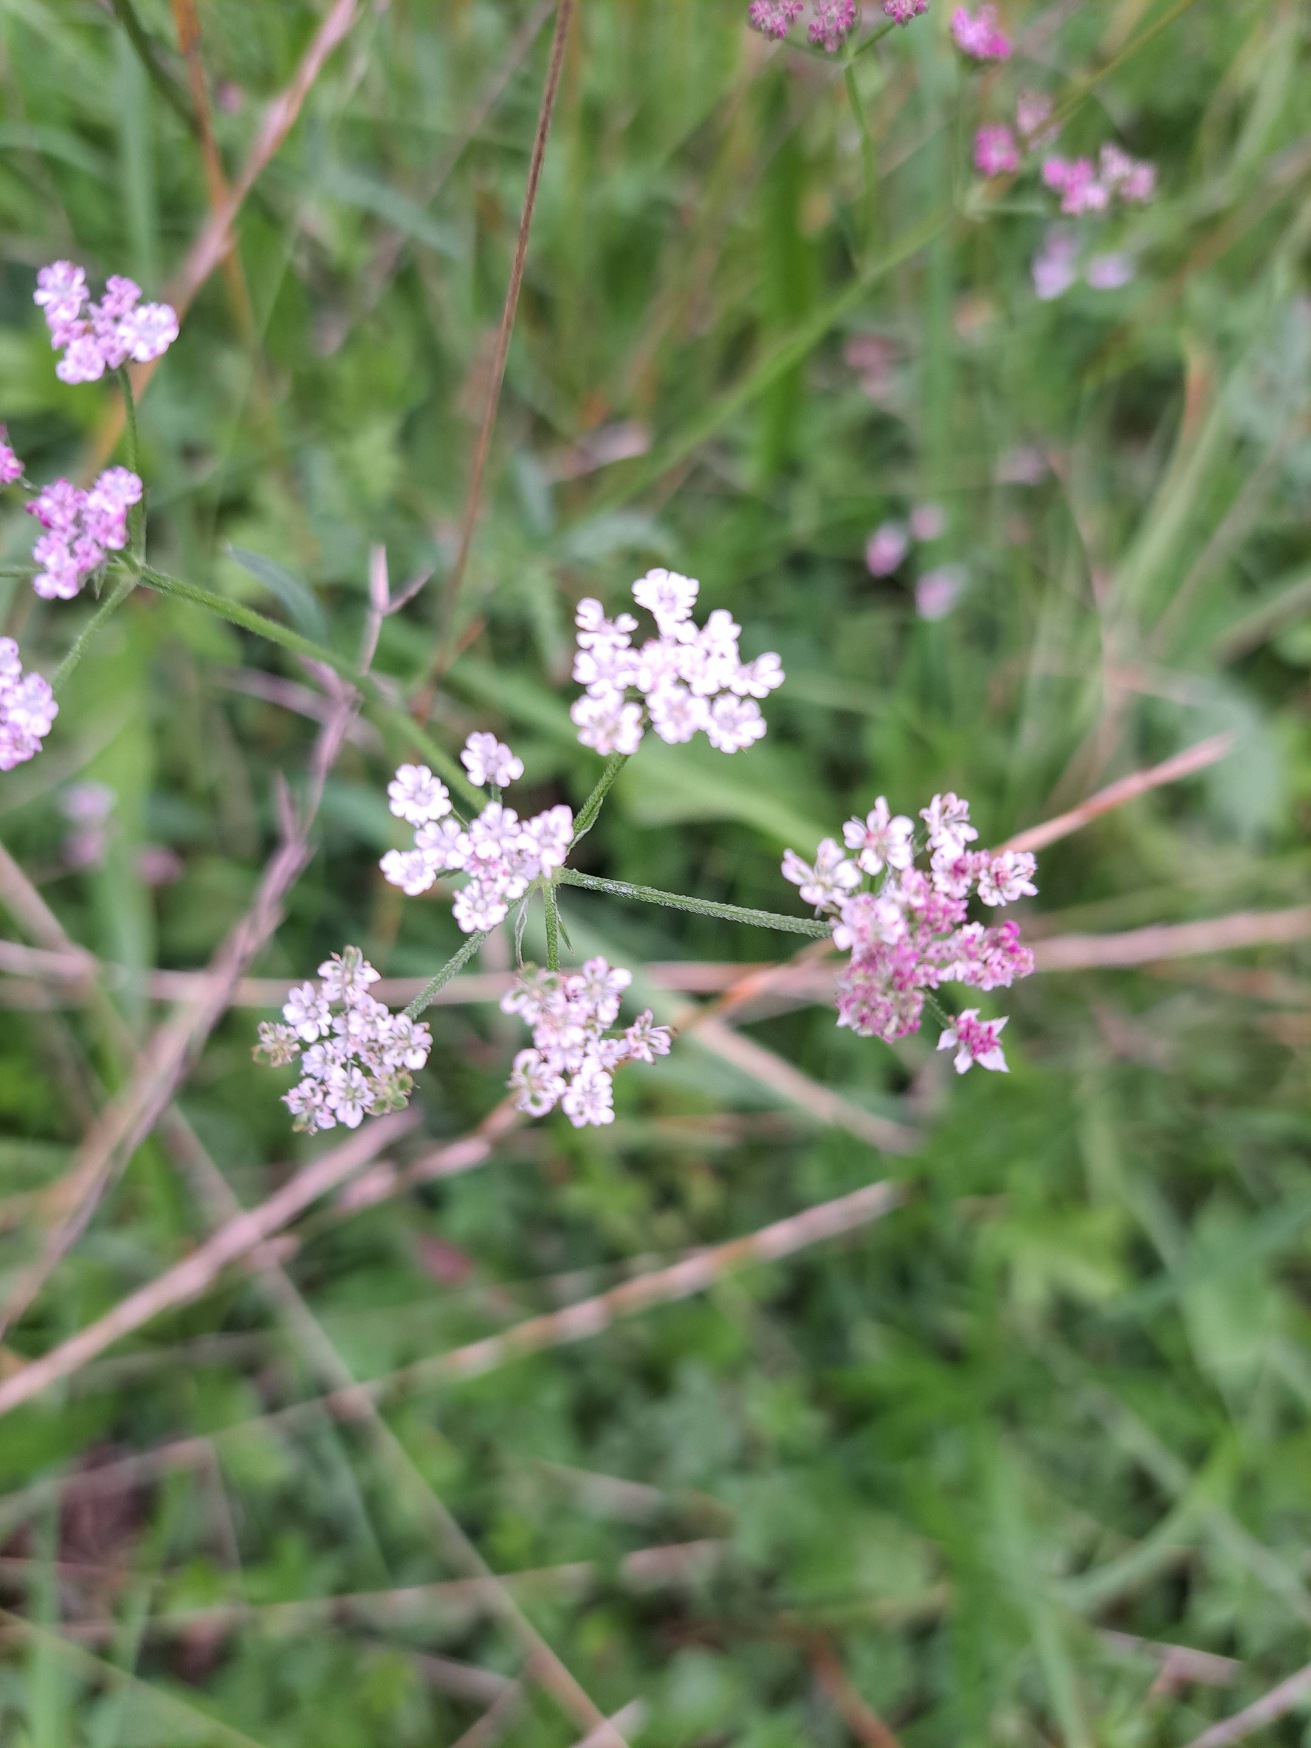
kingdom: Plantae
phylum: Tracheophyta
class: Magnoliopsida
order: Apiales
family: Apiaceae
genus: Torilis
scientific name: Torilis japonica
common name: Hvas randfrø
